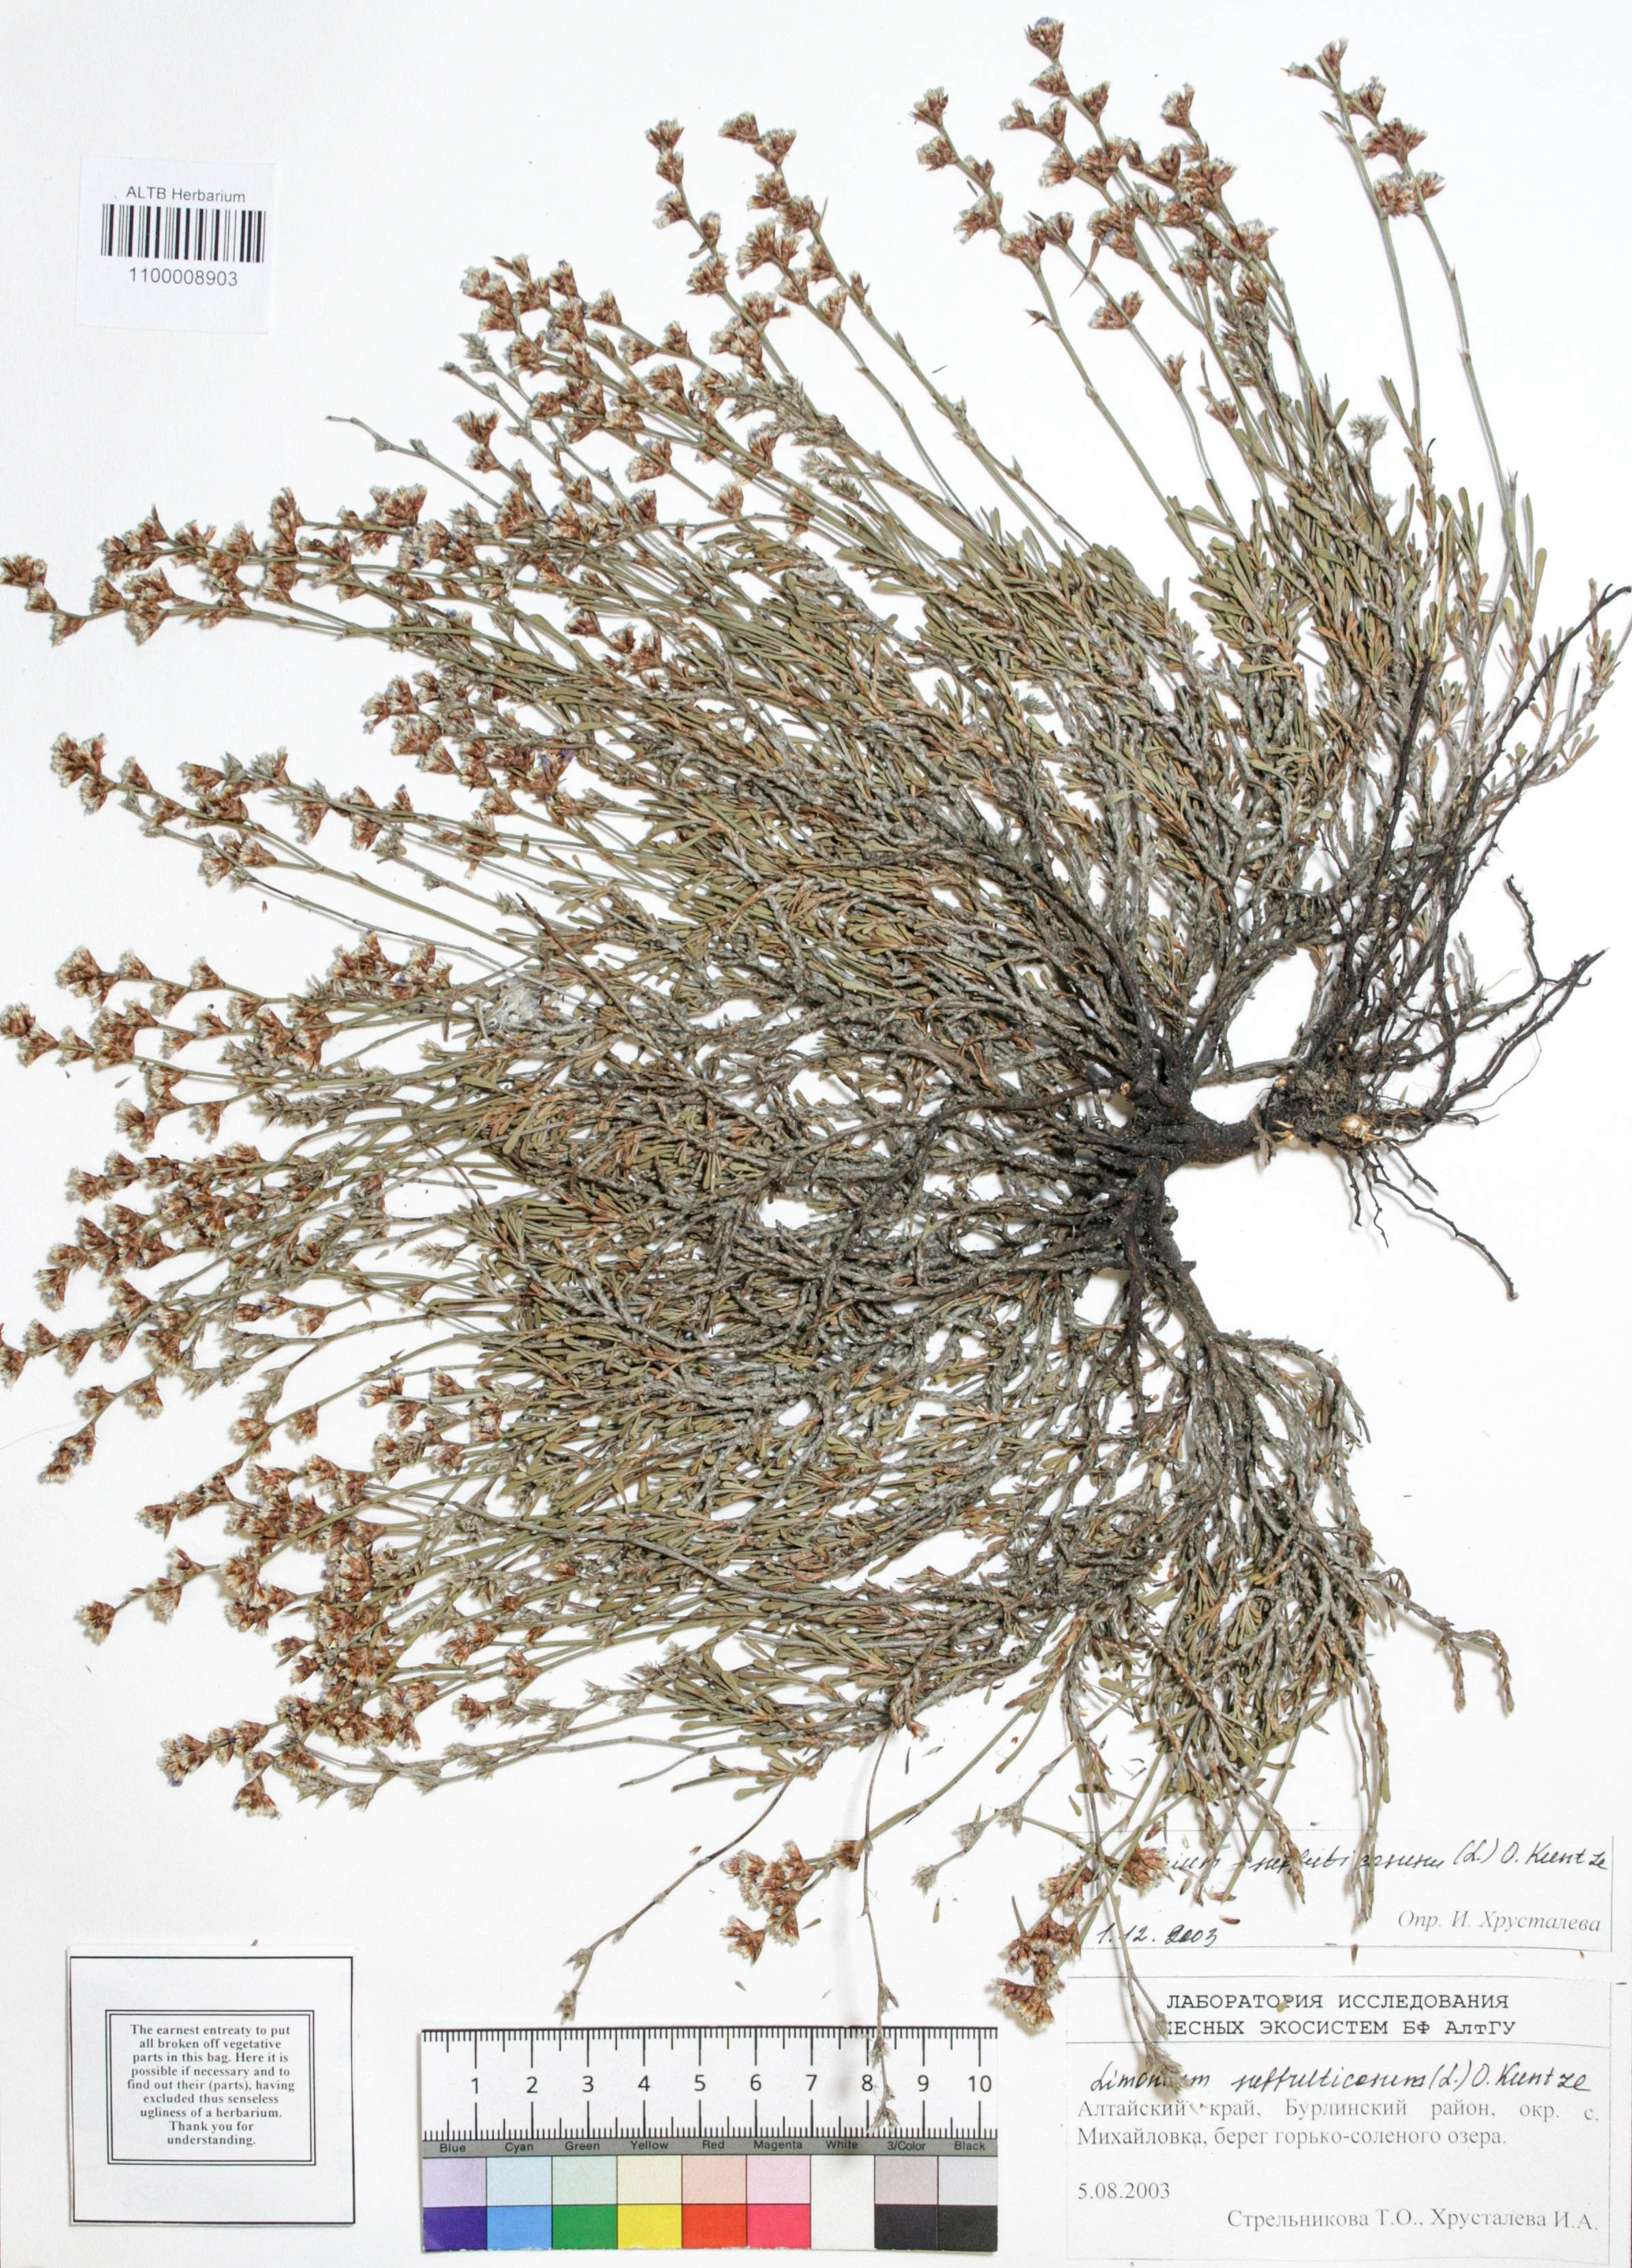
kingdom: Plantae
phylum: Tracheophyta
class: Magnoliopsida
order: Caryophyllales
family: Plumbaginaceae
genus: Limonium
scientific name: Limonium suffruticosum
